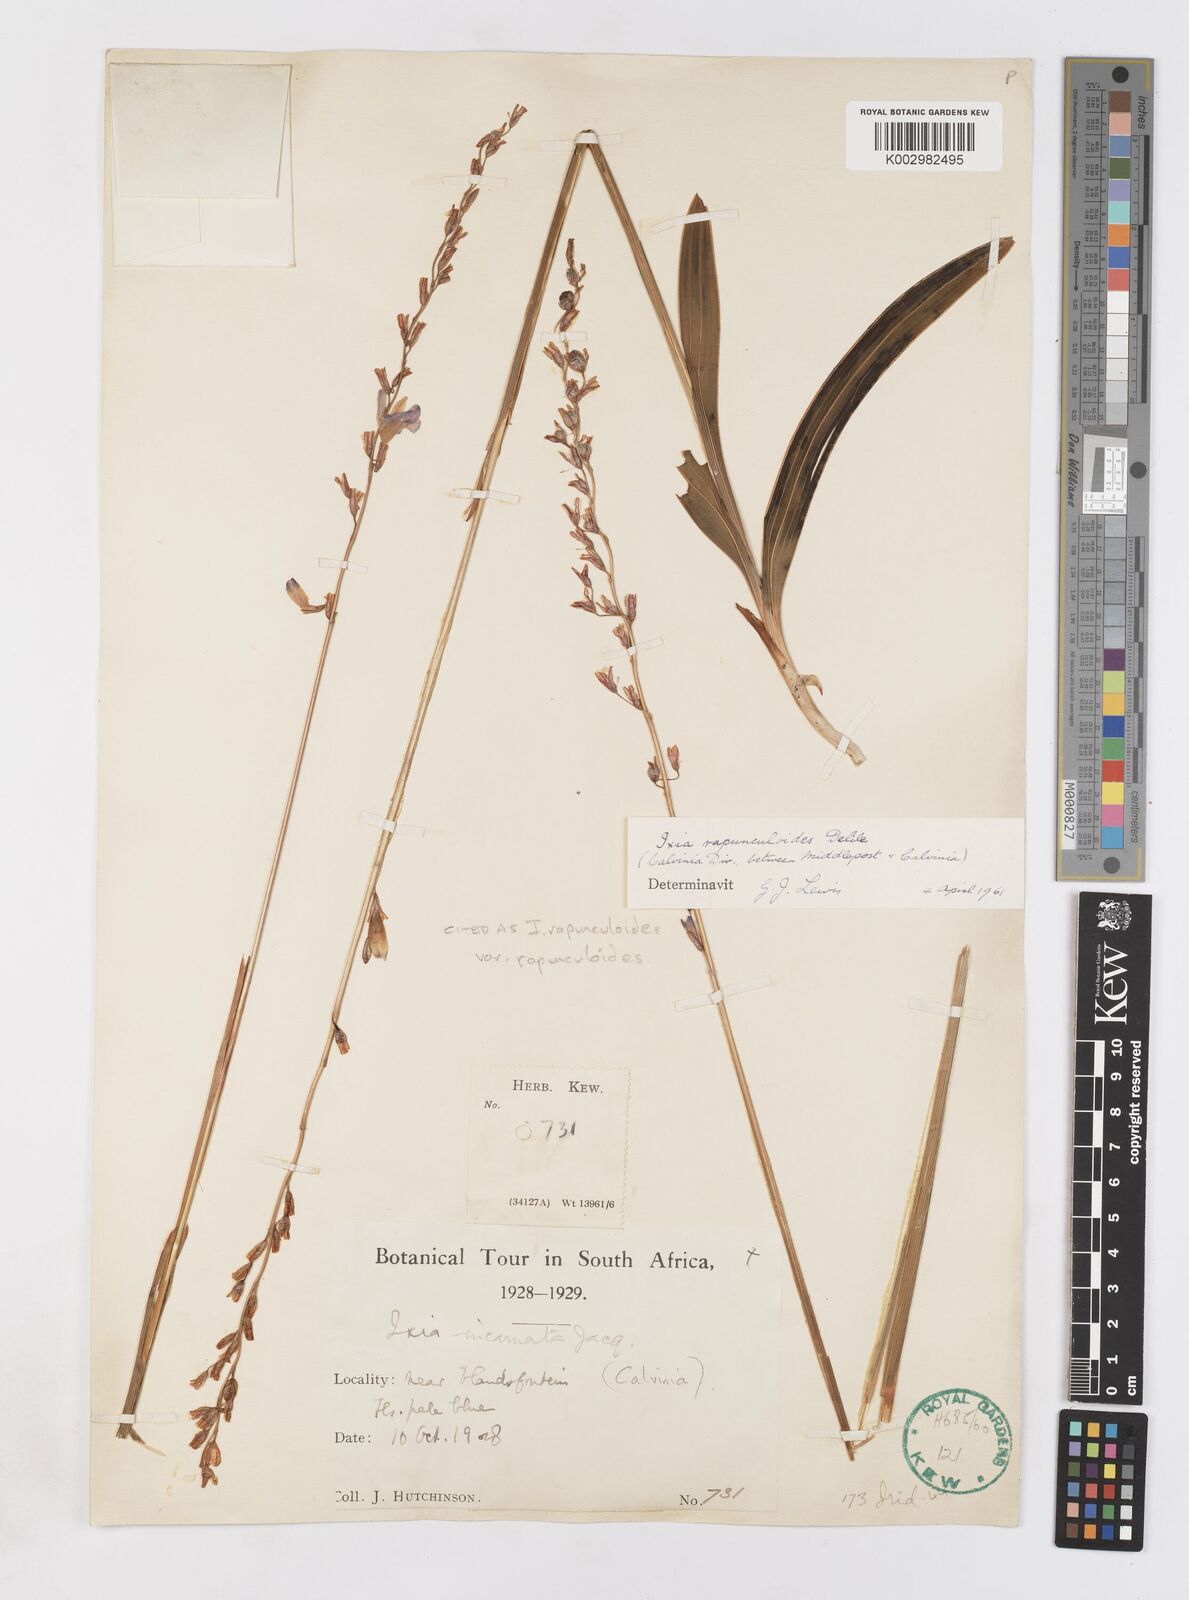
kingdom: Plantae
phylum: Tracheophyta
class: Liliopsida
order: Asparagales
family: Iridaceae
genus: Ixia
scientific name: Ixia rapunculoides
